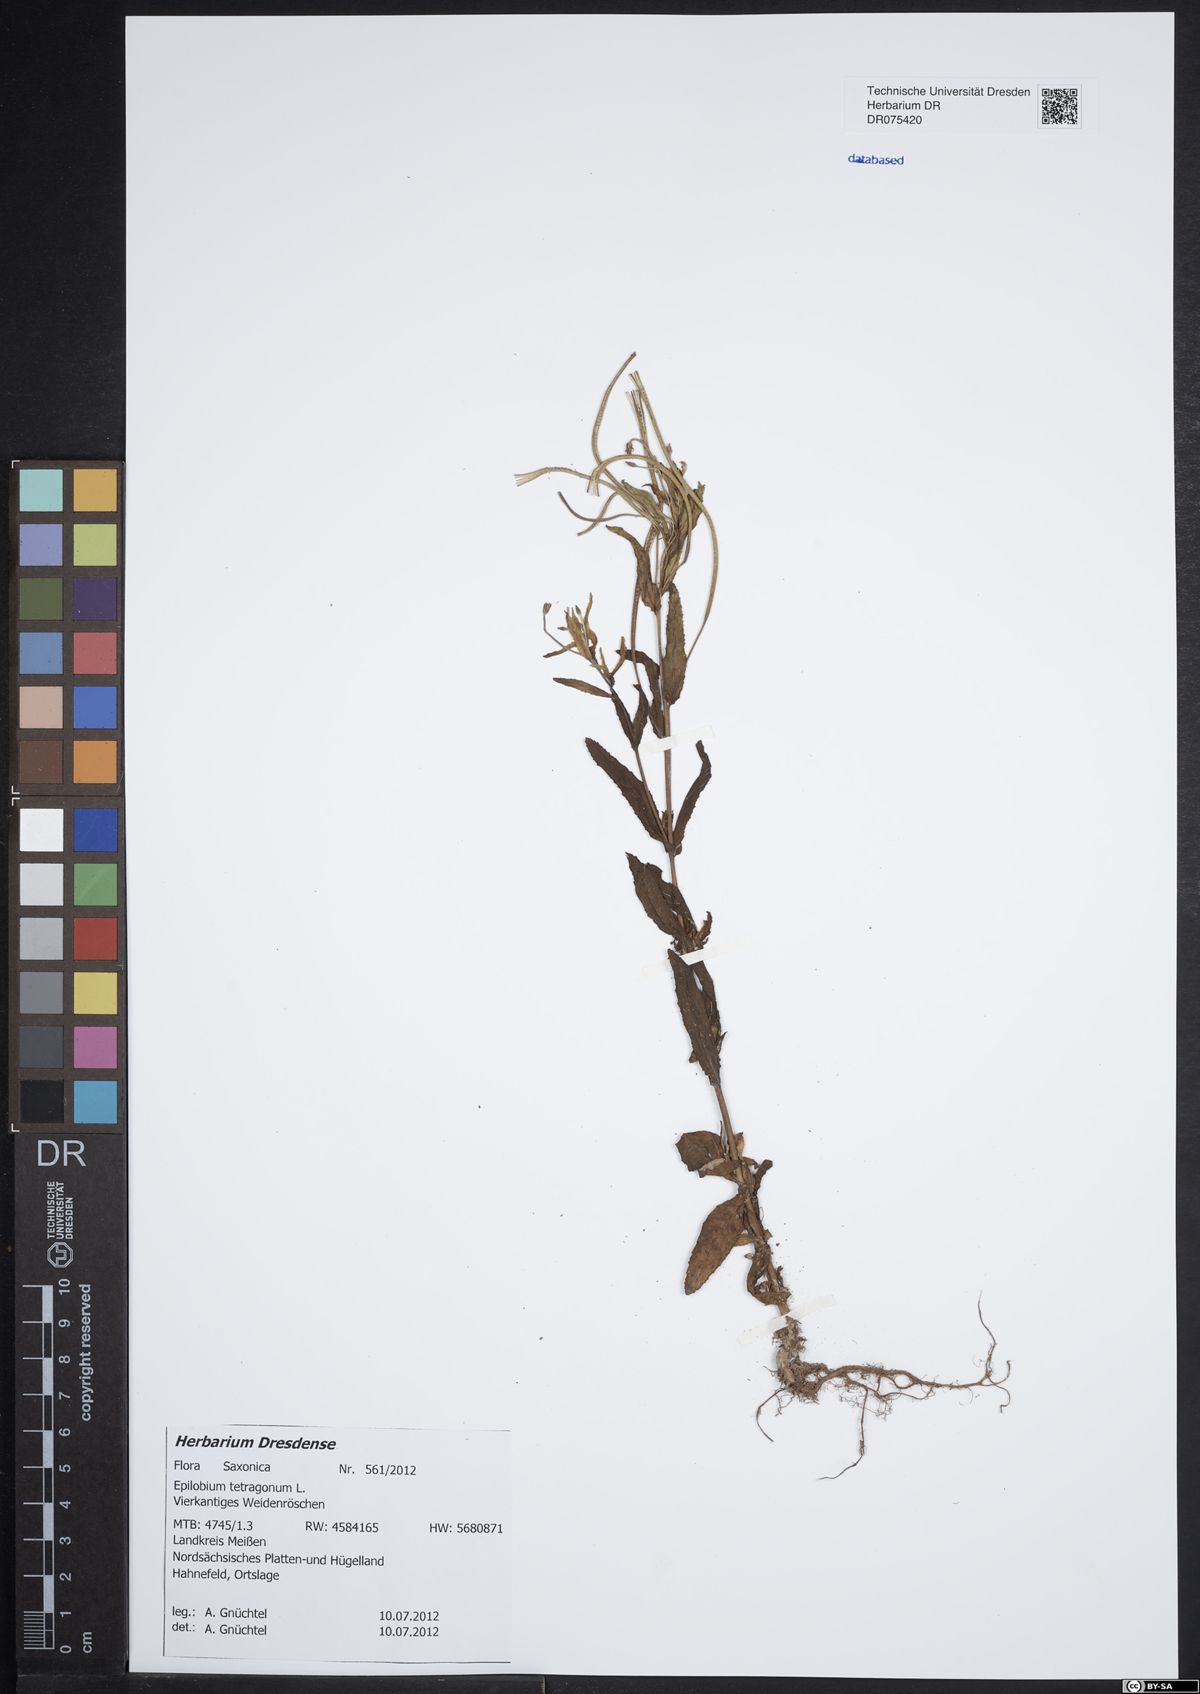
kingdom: Plantae
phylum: Tracheophyta
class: Magnoliopsida
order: Myrtales
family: Onagraceae
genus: Epilobium
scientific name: Epilobium tetragonum
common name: Square-stemmed willowherb
